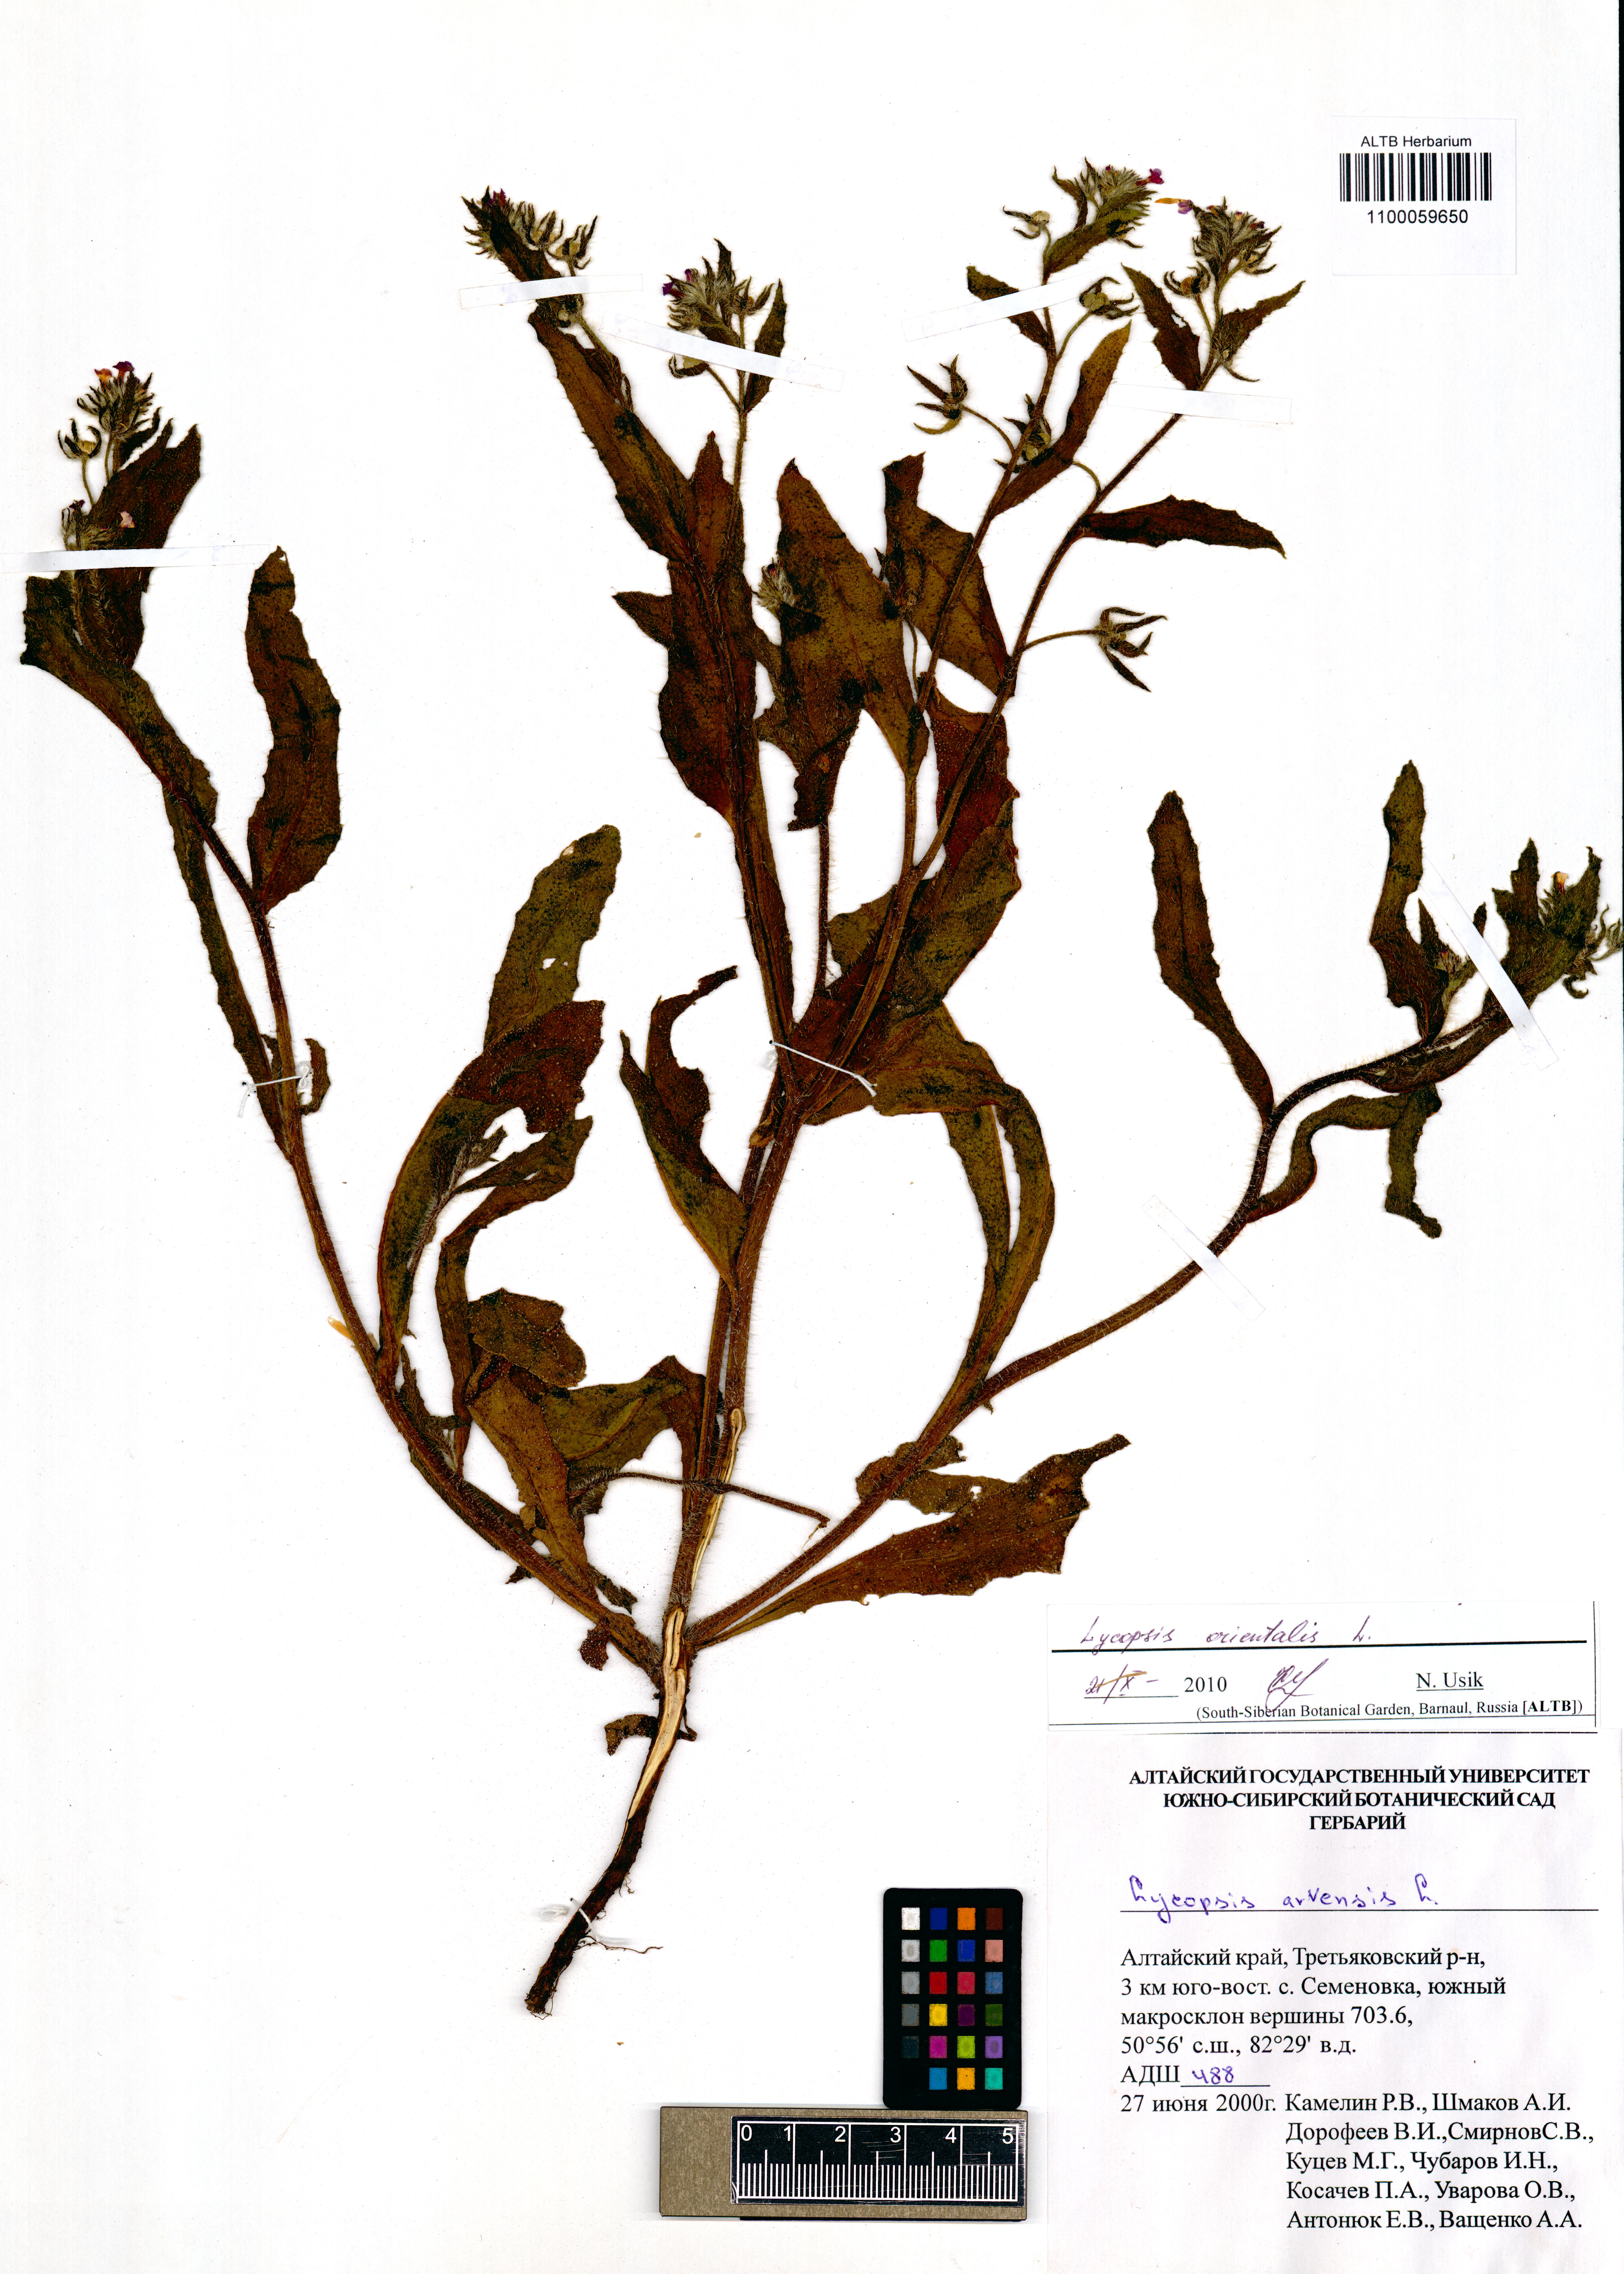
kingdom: Plantae
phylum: Tracheophyta
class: Magnoliopsida
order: Boraginales
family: Boraginaceae
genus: Lycopsis
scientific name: Lycopsis arvensis
